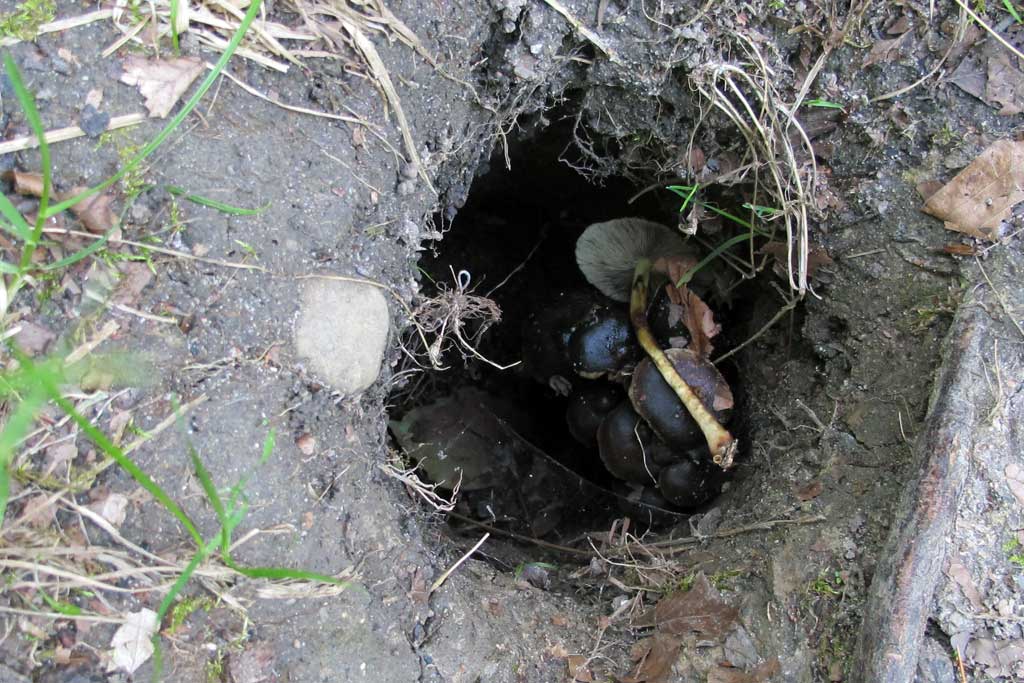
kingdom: Fungi
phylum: Basidiomycota
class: Agaricomycetes
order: Agaricales
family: Strophariaceae
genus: Hypholoma
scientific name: Hypholoma fasciculare
